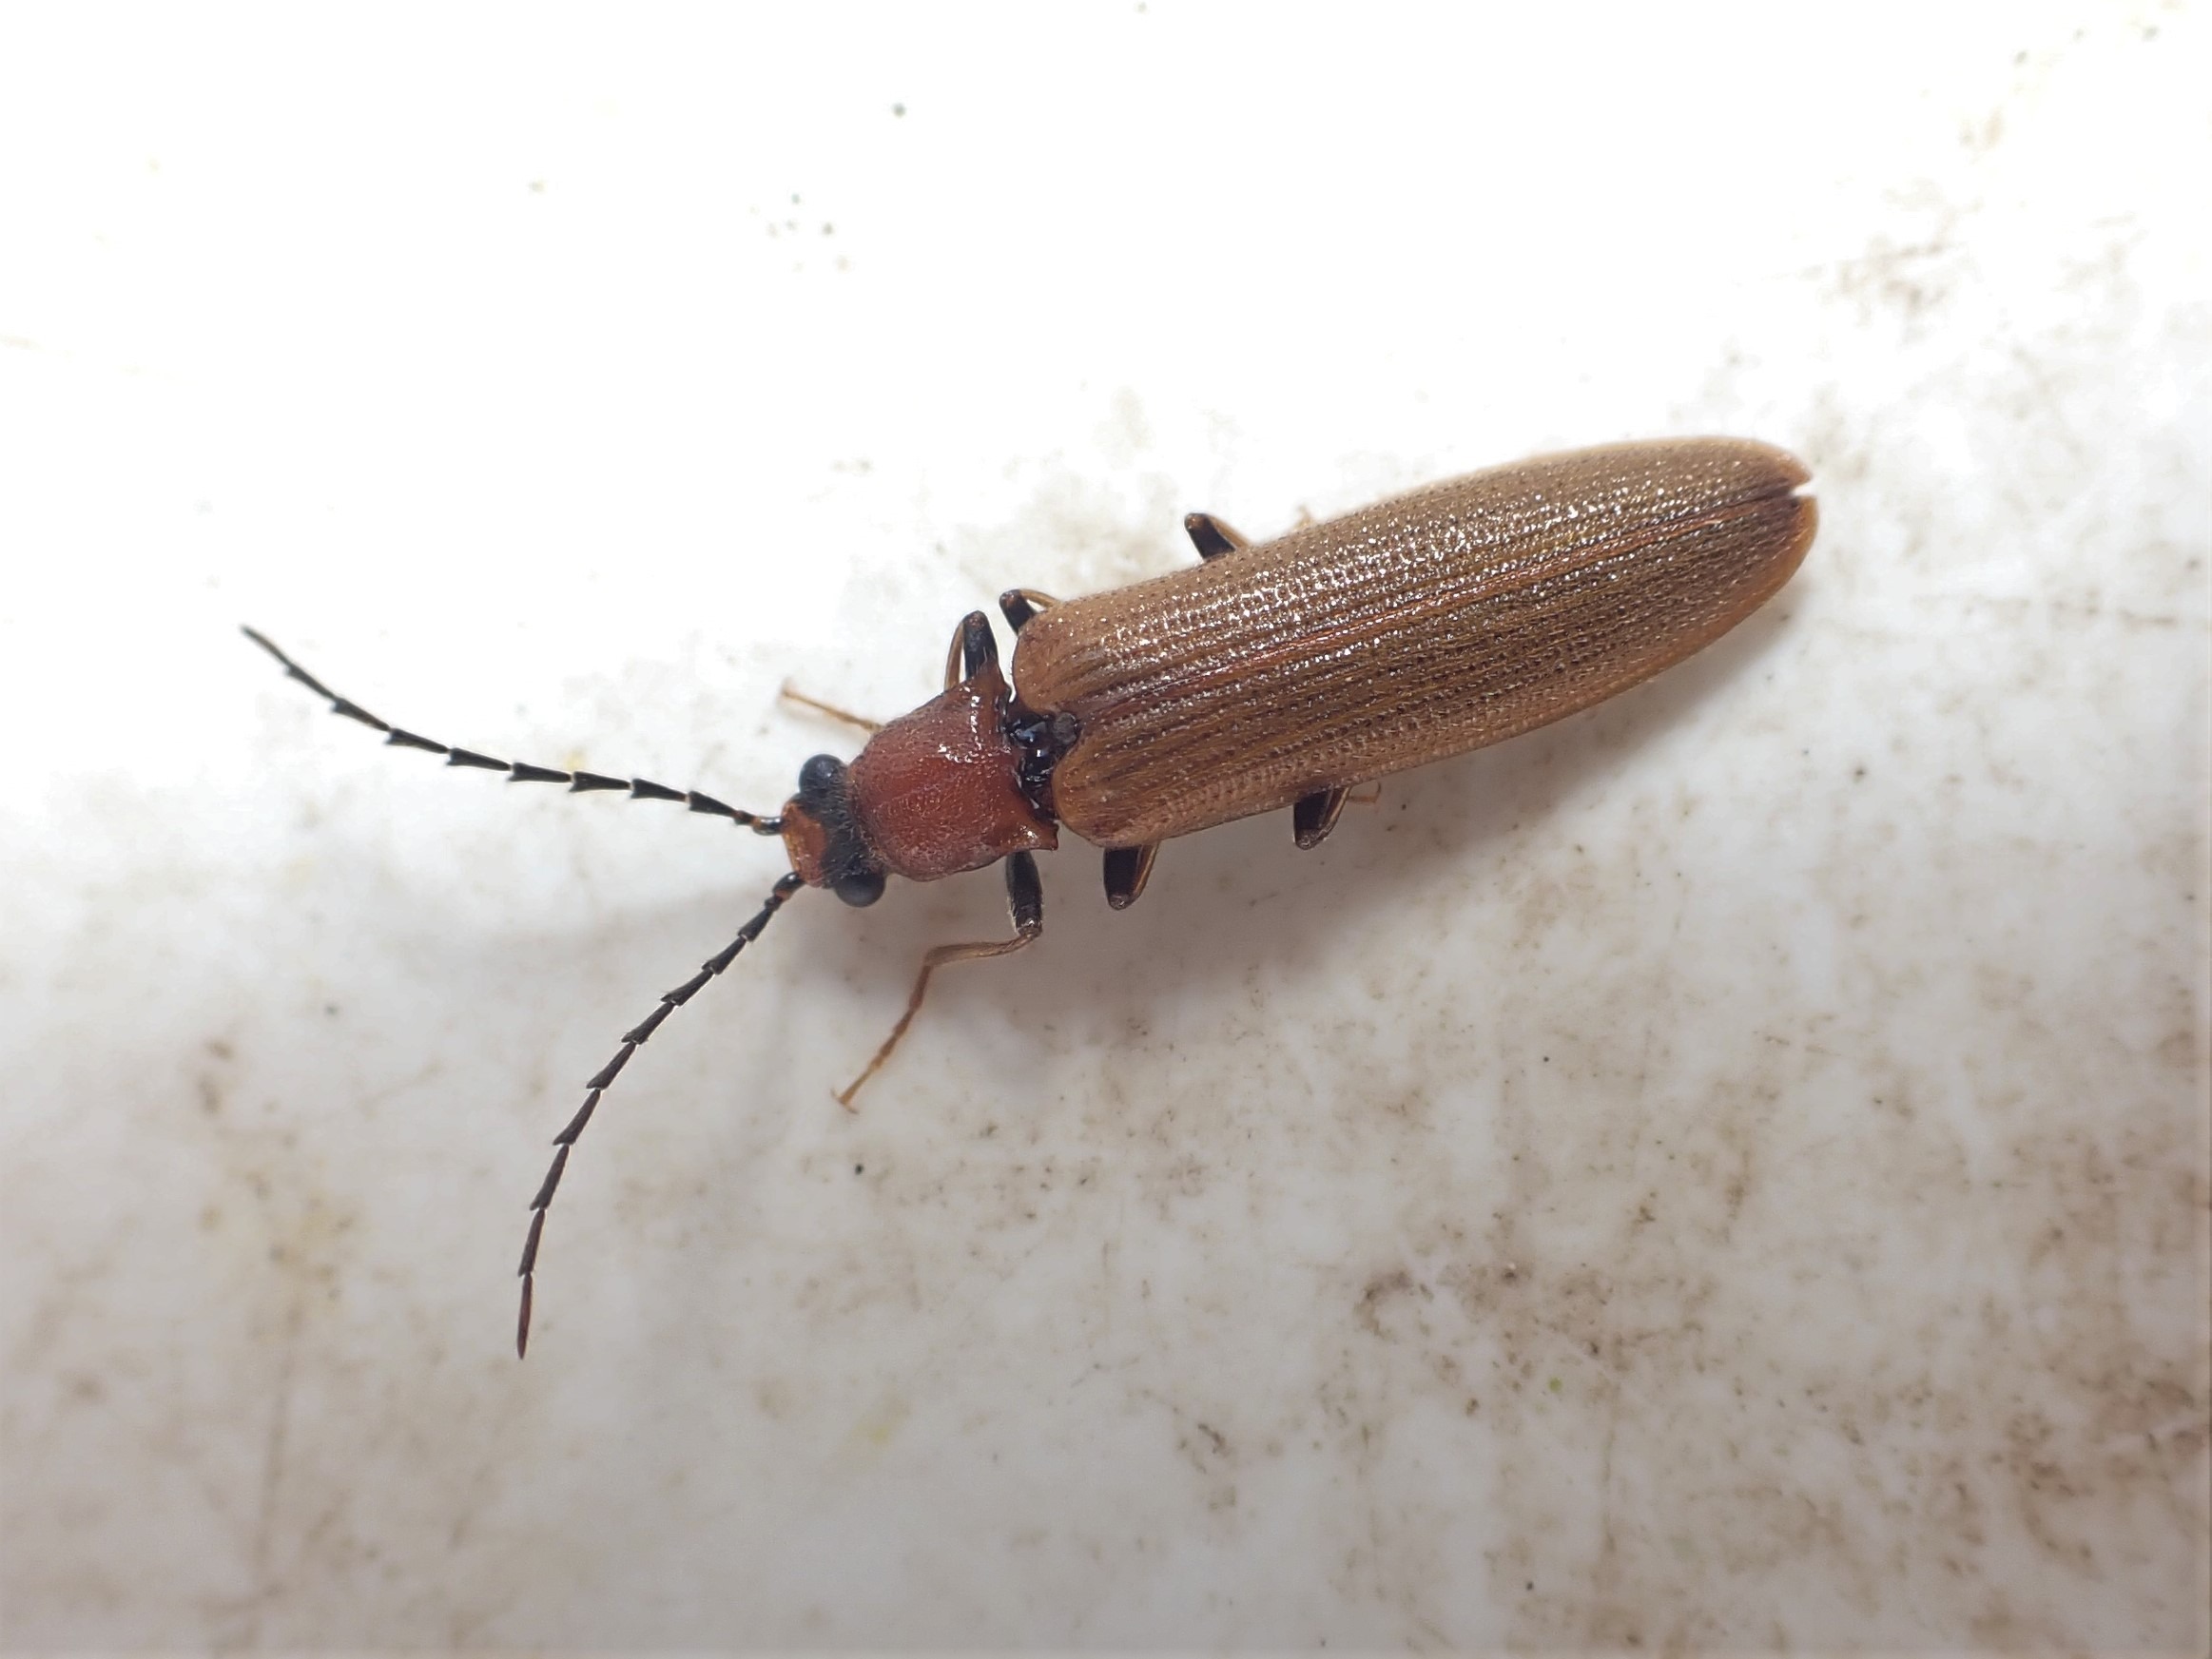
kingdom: Animalia
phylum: Arthropoda
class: Insecta
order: Coleoptera
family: Elateridae
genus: Denticollis
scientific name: Denticollis linearis
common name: Almindelig sirsmælder
